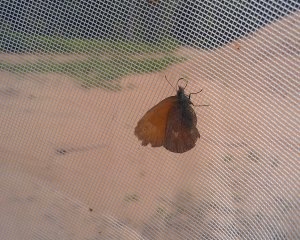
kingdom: Animalia
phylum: Arthropoda
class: Insecta
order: Lepidoptera
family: Nymphalidae
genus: Coenonympha
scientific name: Coenonympha tullia
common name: Large Heath
